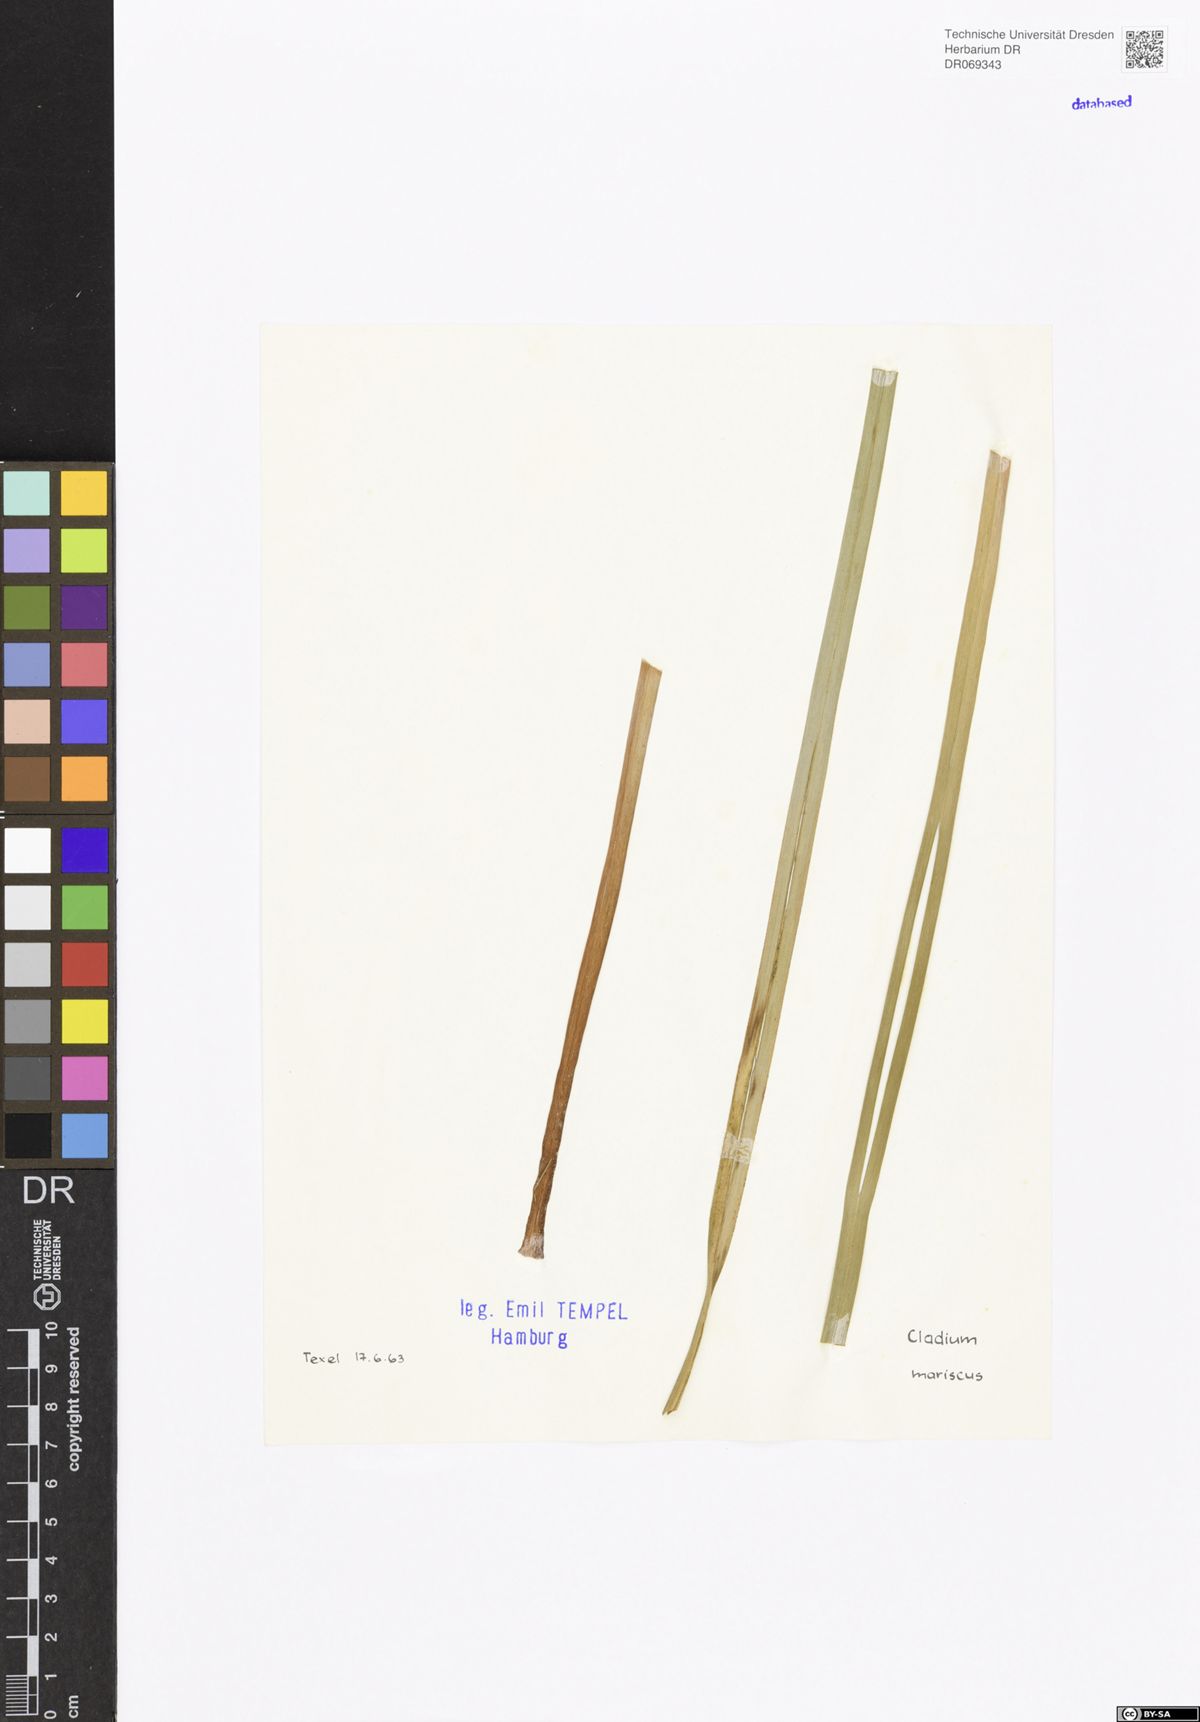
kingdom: Plantae
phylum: Tracheophyta
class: Liliopsida
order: Poales
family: Cyperaceae
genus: Cladium
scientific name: Cladium mariscus
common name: Great fen-sedge
